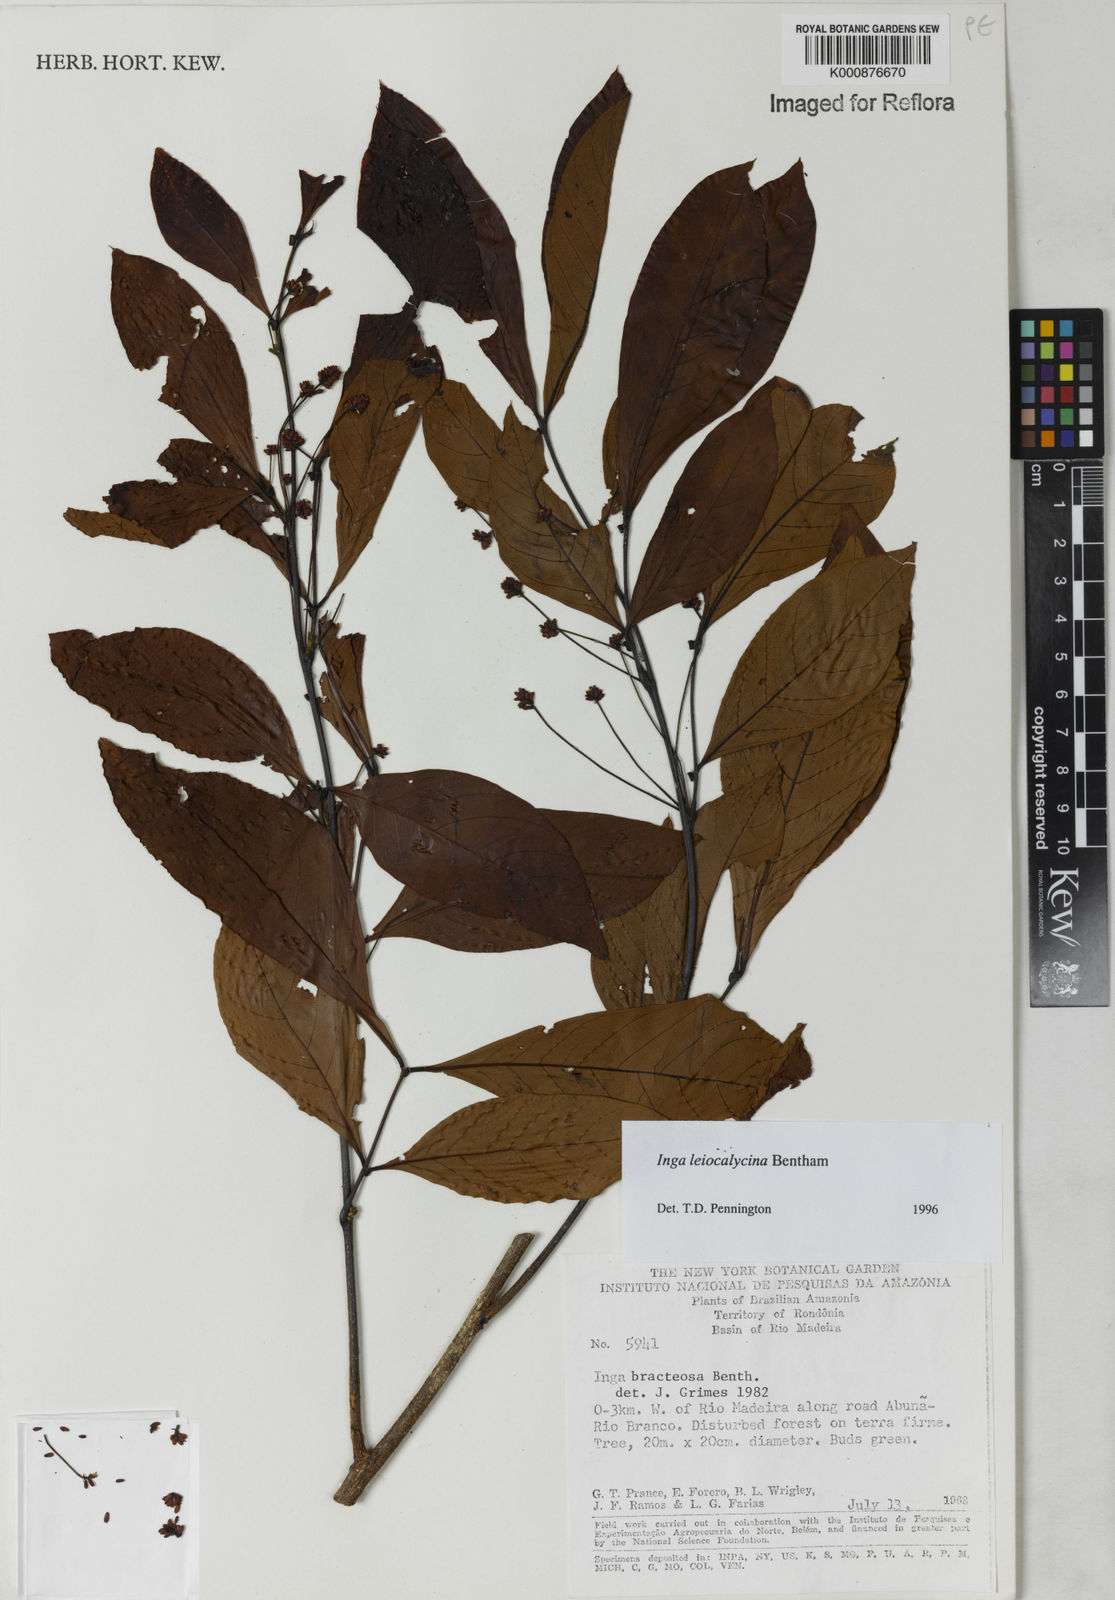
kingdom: Plantae
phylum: Tracheophyta
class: Magnoliopsida
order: Fabales
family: Fabaceae
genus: Inga
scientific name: Inga laevigata
